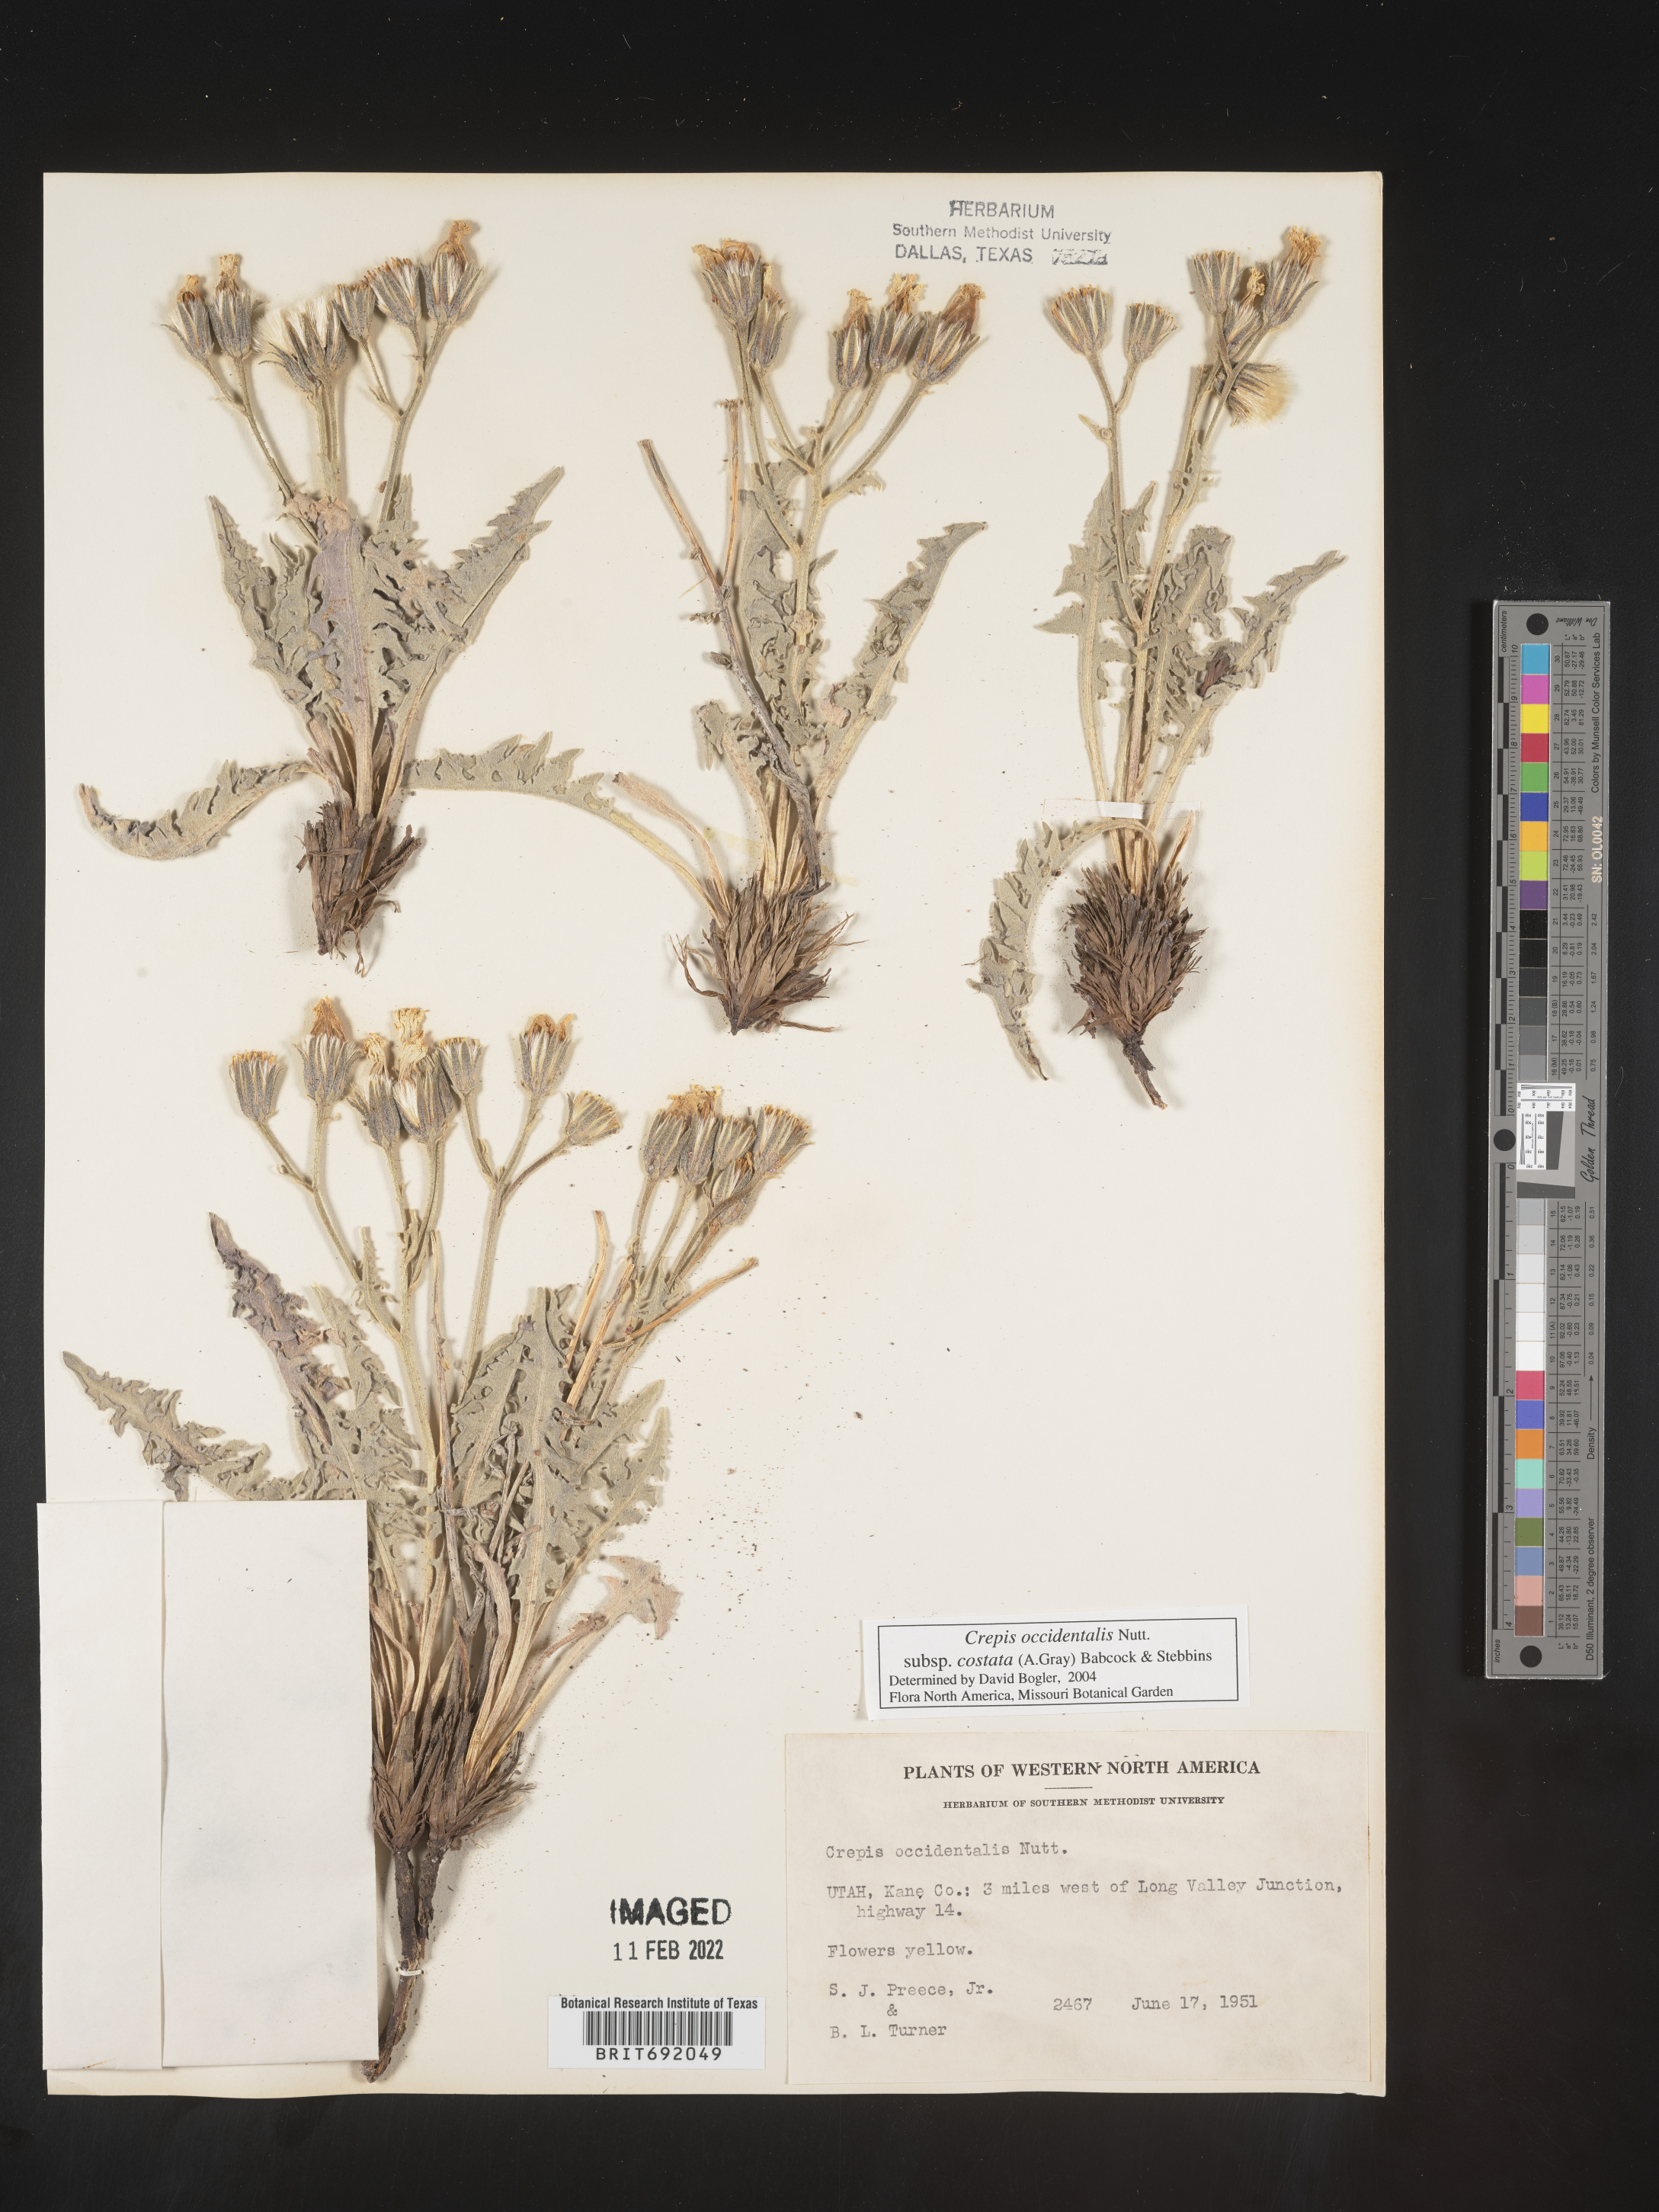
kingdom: Plantae
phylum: Tracheophyta
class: Magnoliopsida
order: Asterales
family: Asteraceae
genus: Crepis
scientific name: Crepis occidentalis
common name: Gray hawk's-beard
